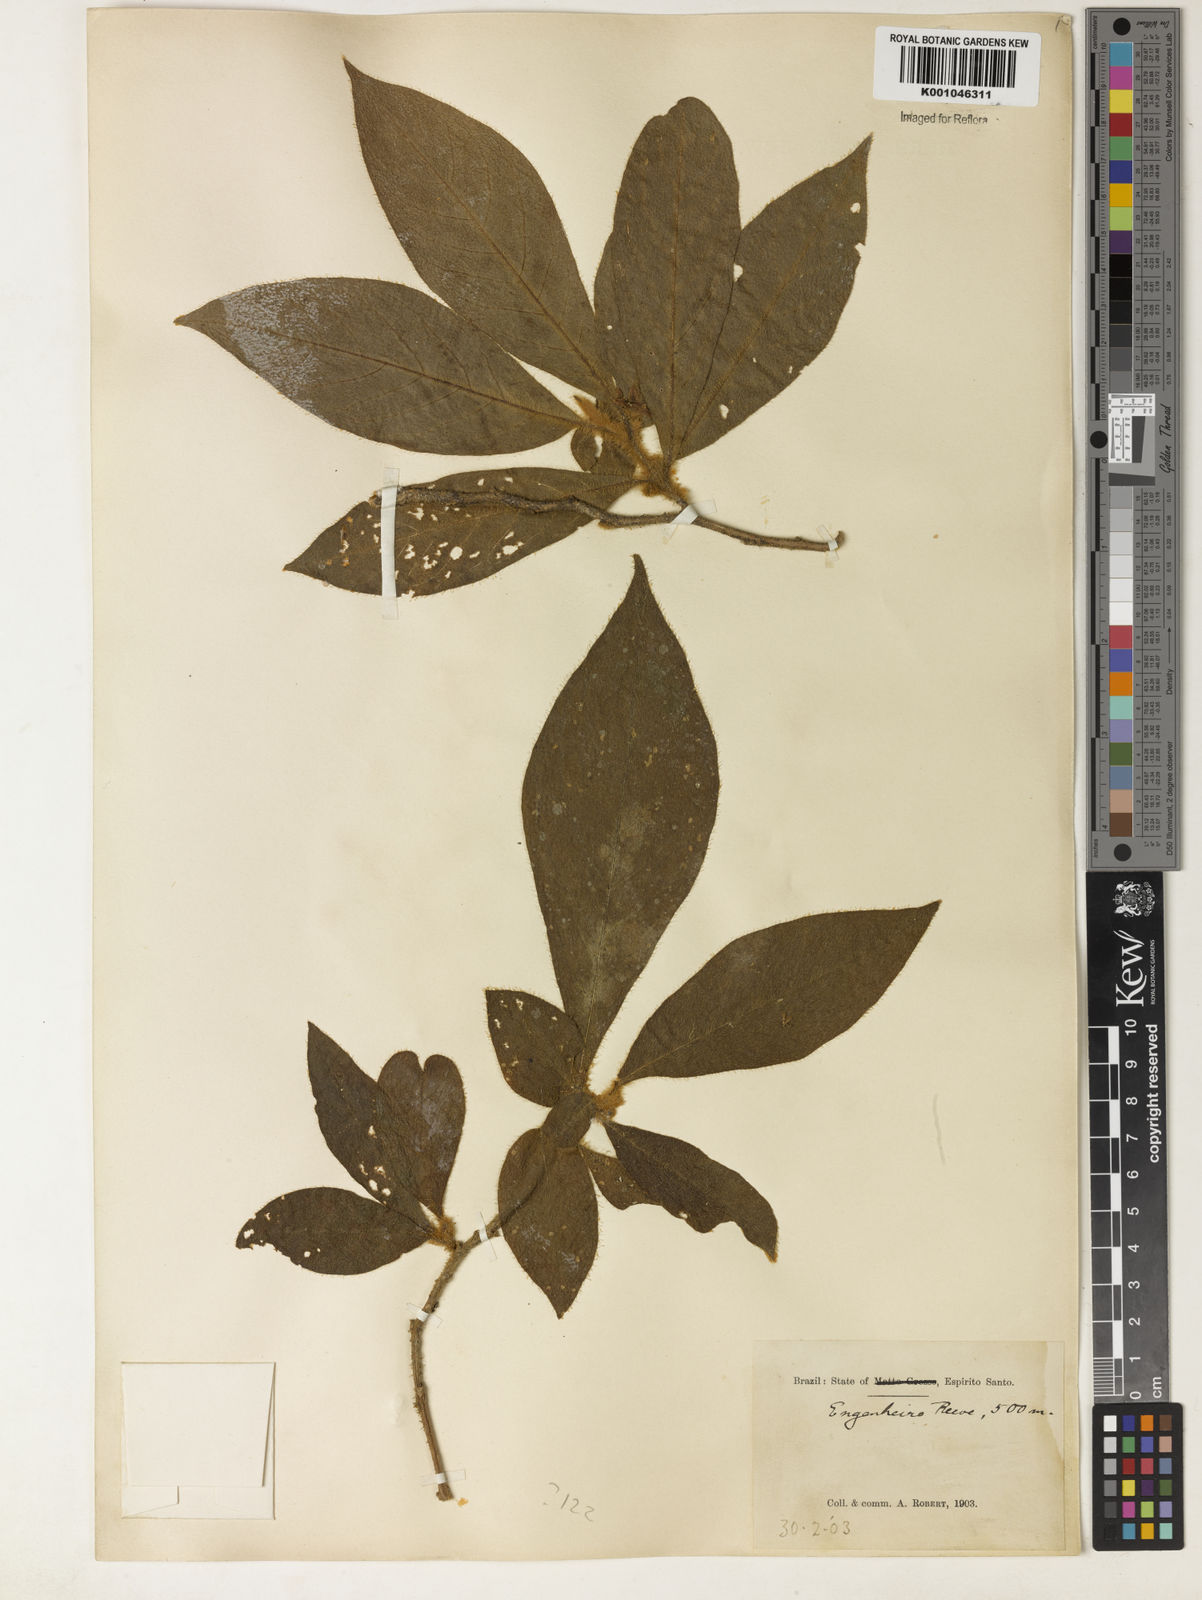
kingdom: Plantae
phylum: Tracheophyta
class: Magnoliopsida
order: Lamiales
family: Acanthaceae
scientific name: Acanthaceae
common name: Acanthaceae
